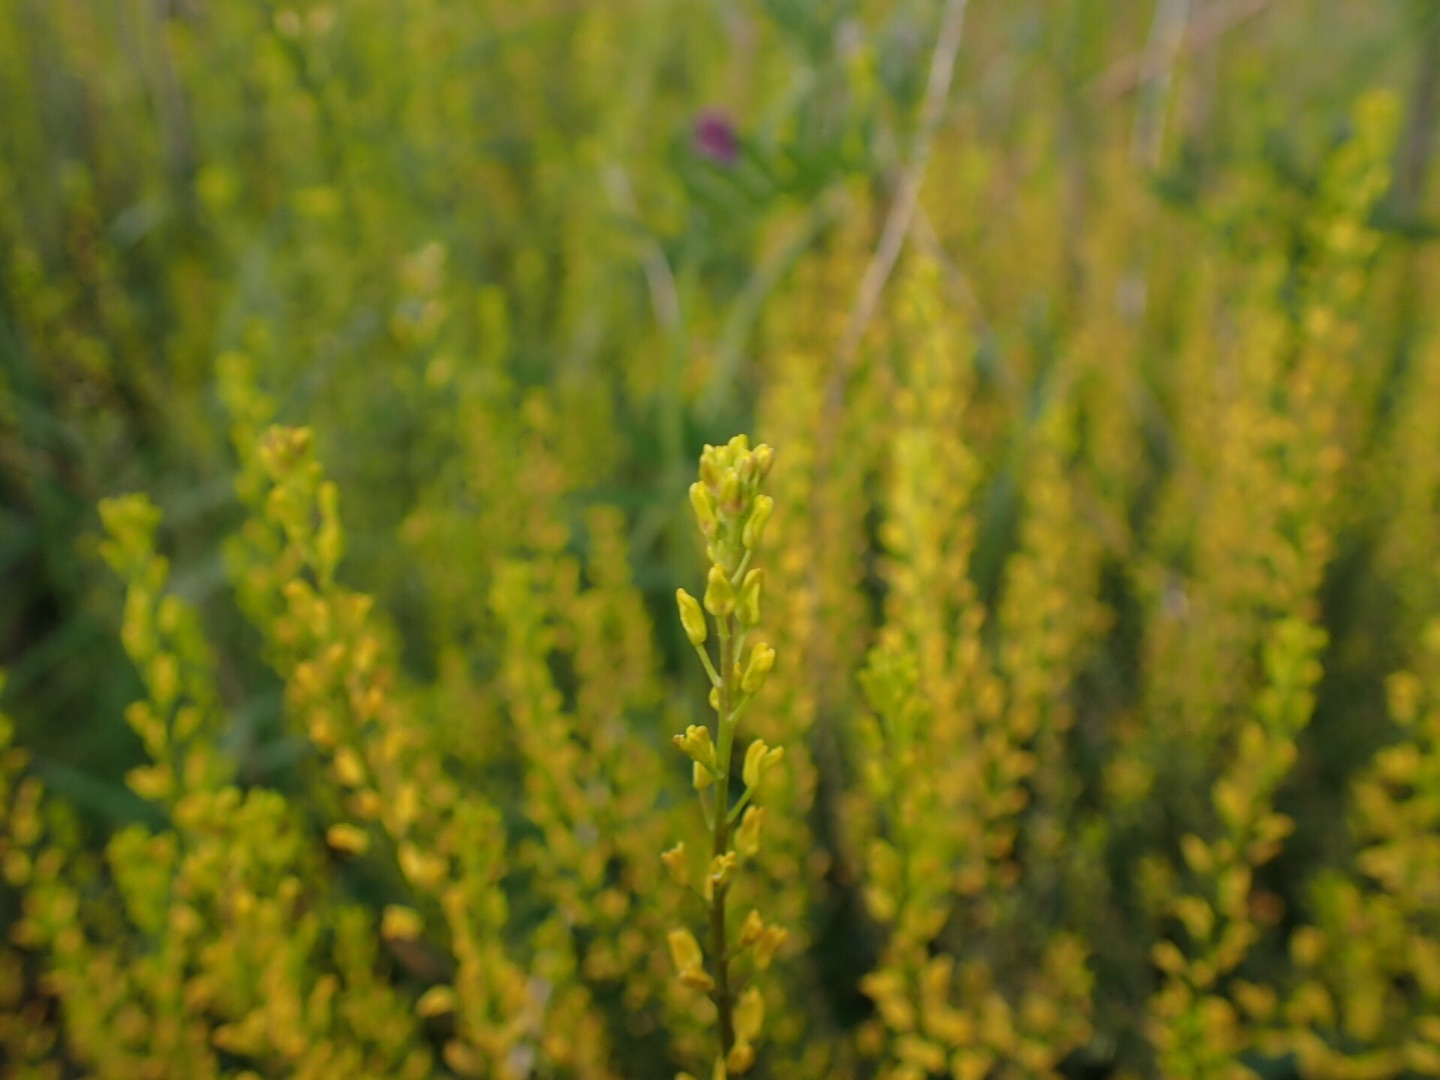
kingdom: Plantae
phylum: Tracheophyta
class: Magnoliopsida
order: Brassicales
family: Brassicaceae
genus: Barbarea
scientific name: Barbarea vulgaris
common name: Almindelig vinterkarse
